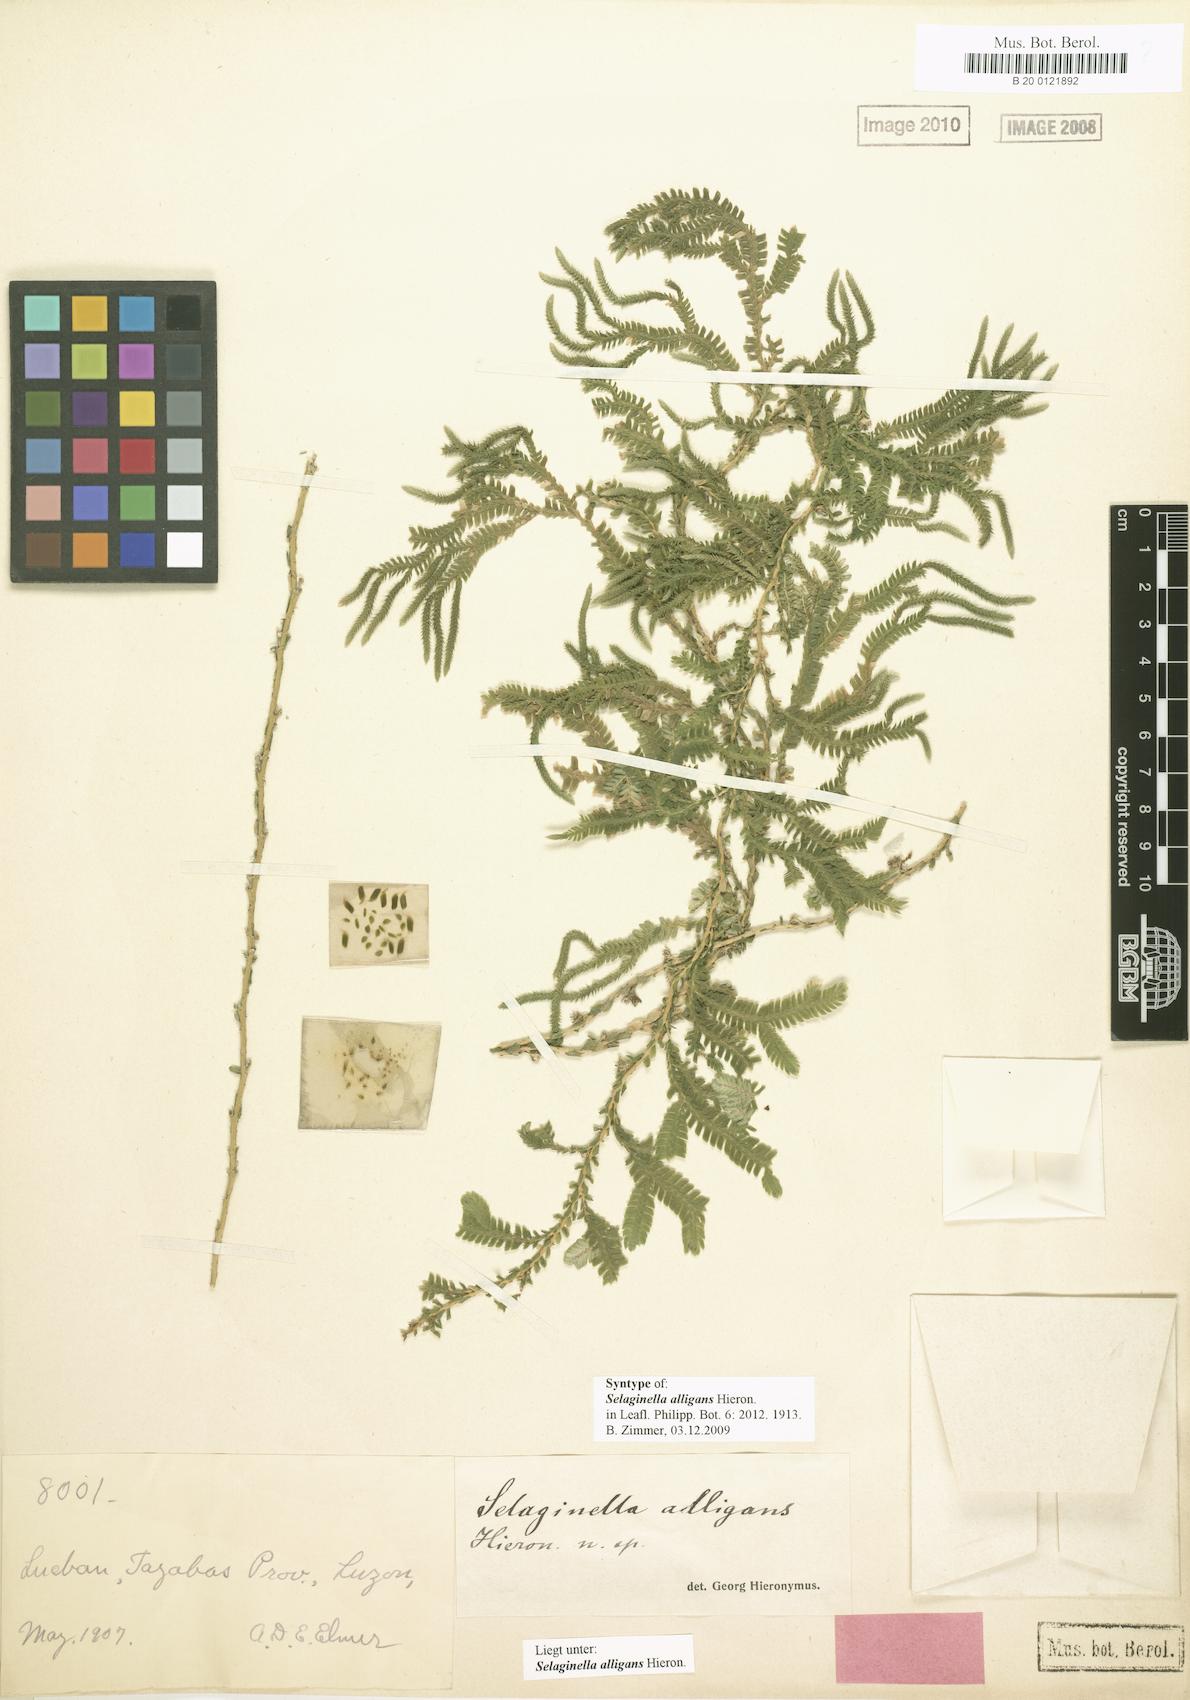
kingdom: Plantae
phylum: Tracheophyta
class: Lycopodiopsida
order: Selaginellales
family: Selaginellaceae
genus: Selaginella
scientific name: Selaginella alligans
